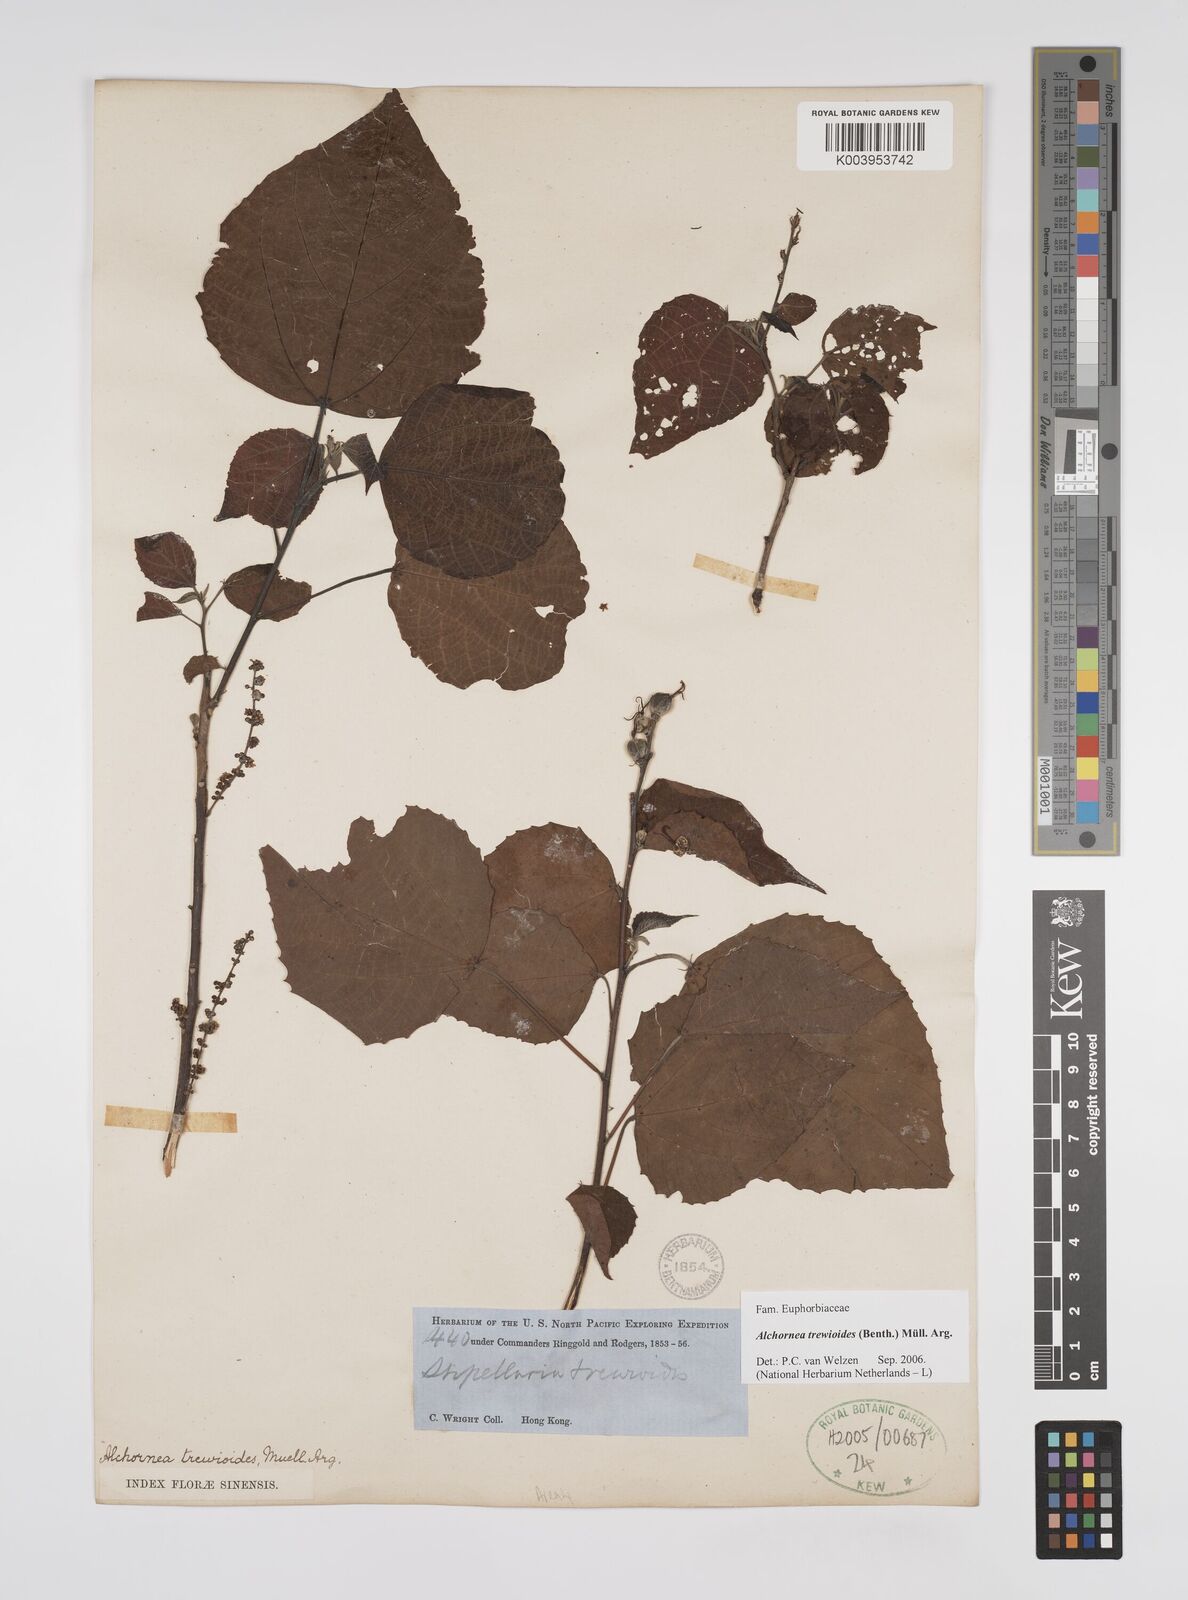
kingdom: Plantae
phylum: Tracheophyta
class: Magnoliopsida
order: Malpighiales
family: Euphorbiaceae
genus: Alchornea
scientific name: Alchornea trewioides
